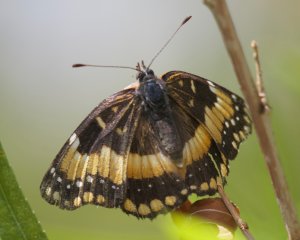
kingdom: Animalia
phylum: Arthropoda
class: Insecta
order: Lepidoptera
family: Nymphalidae
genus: Chlosyne
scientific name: Chlosyne californica
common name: California Patch
